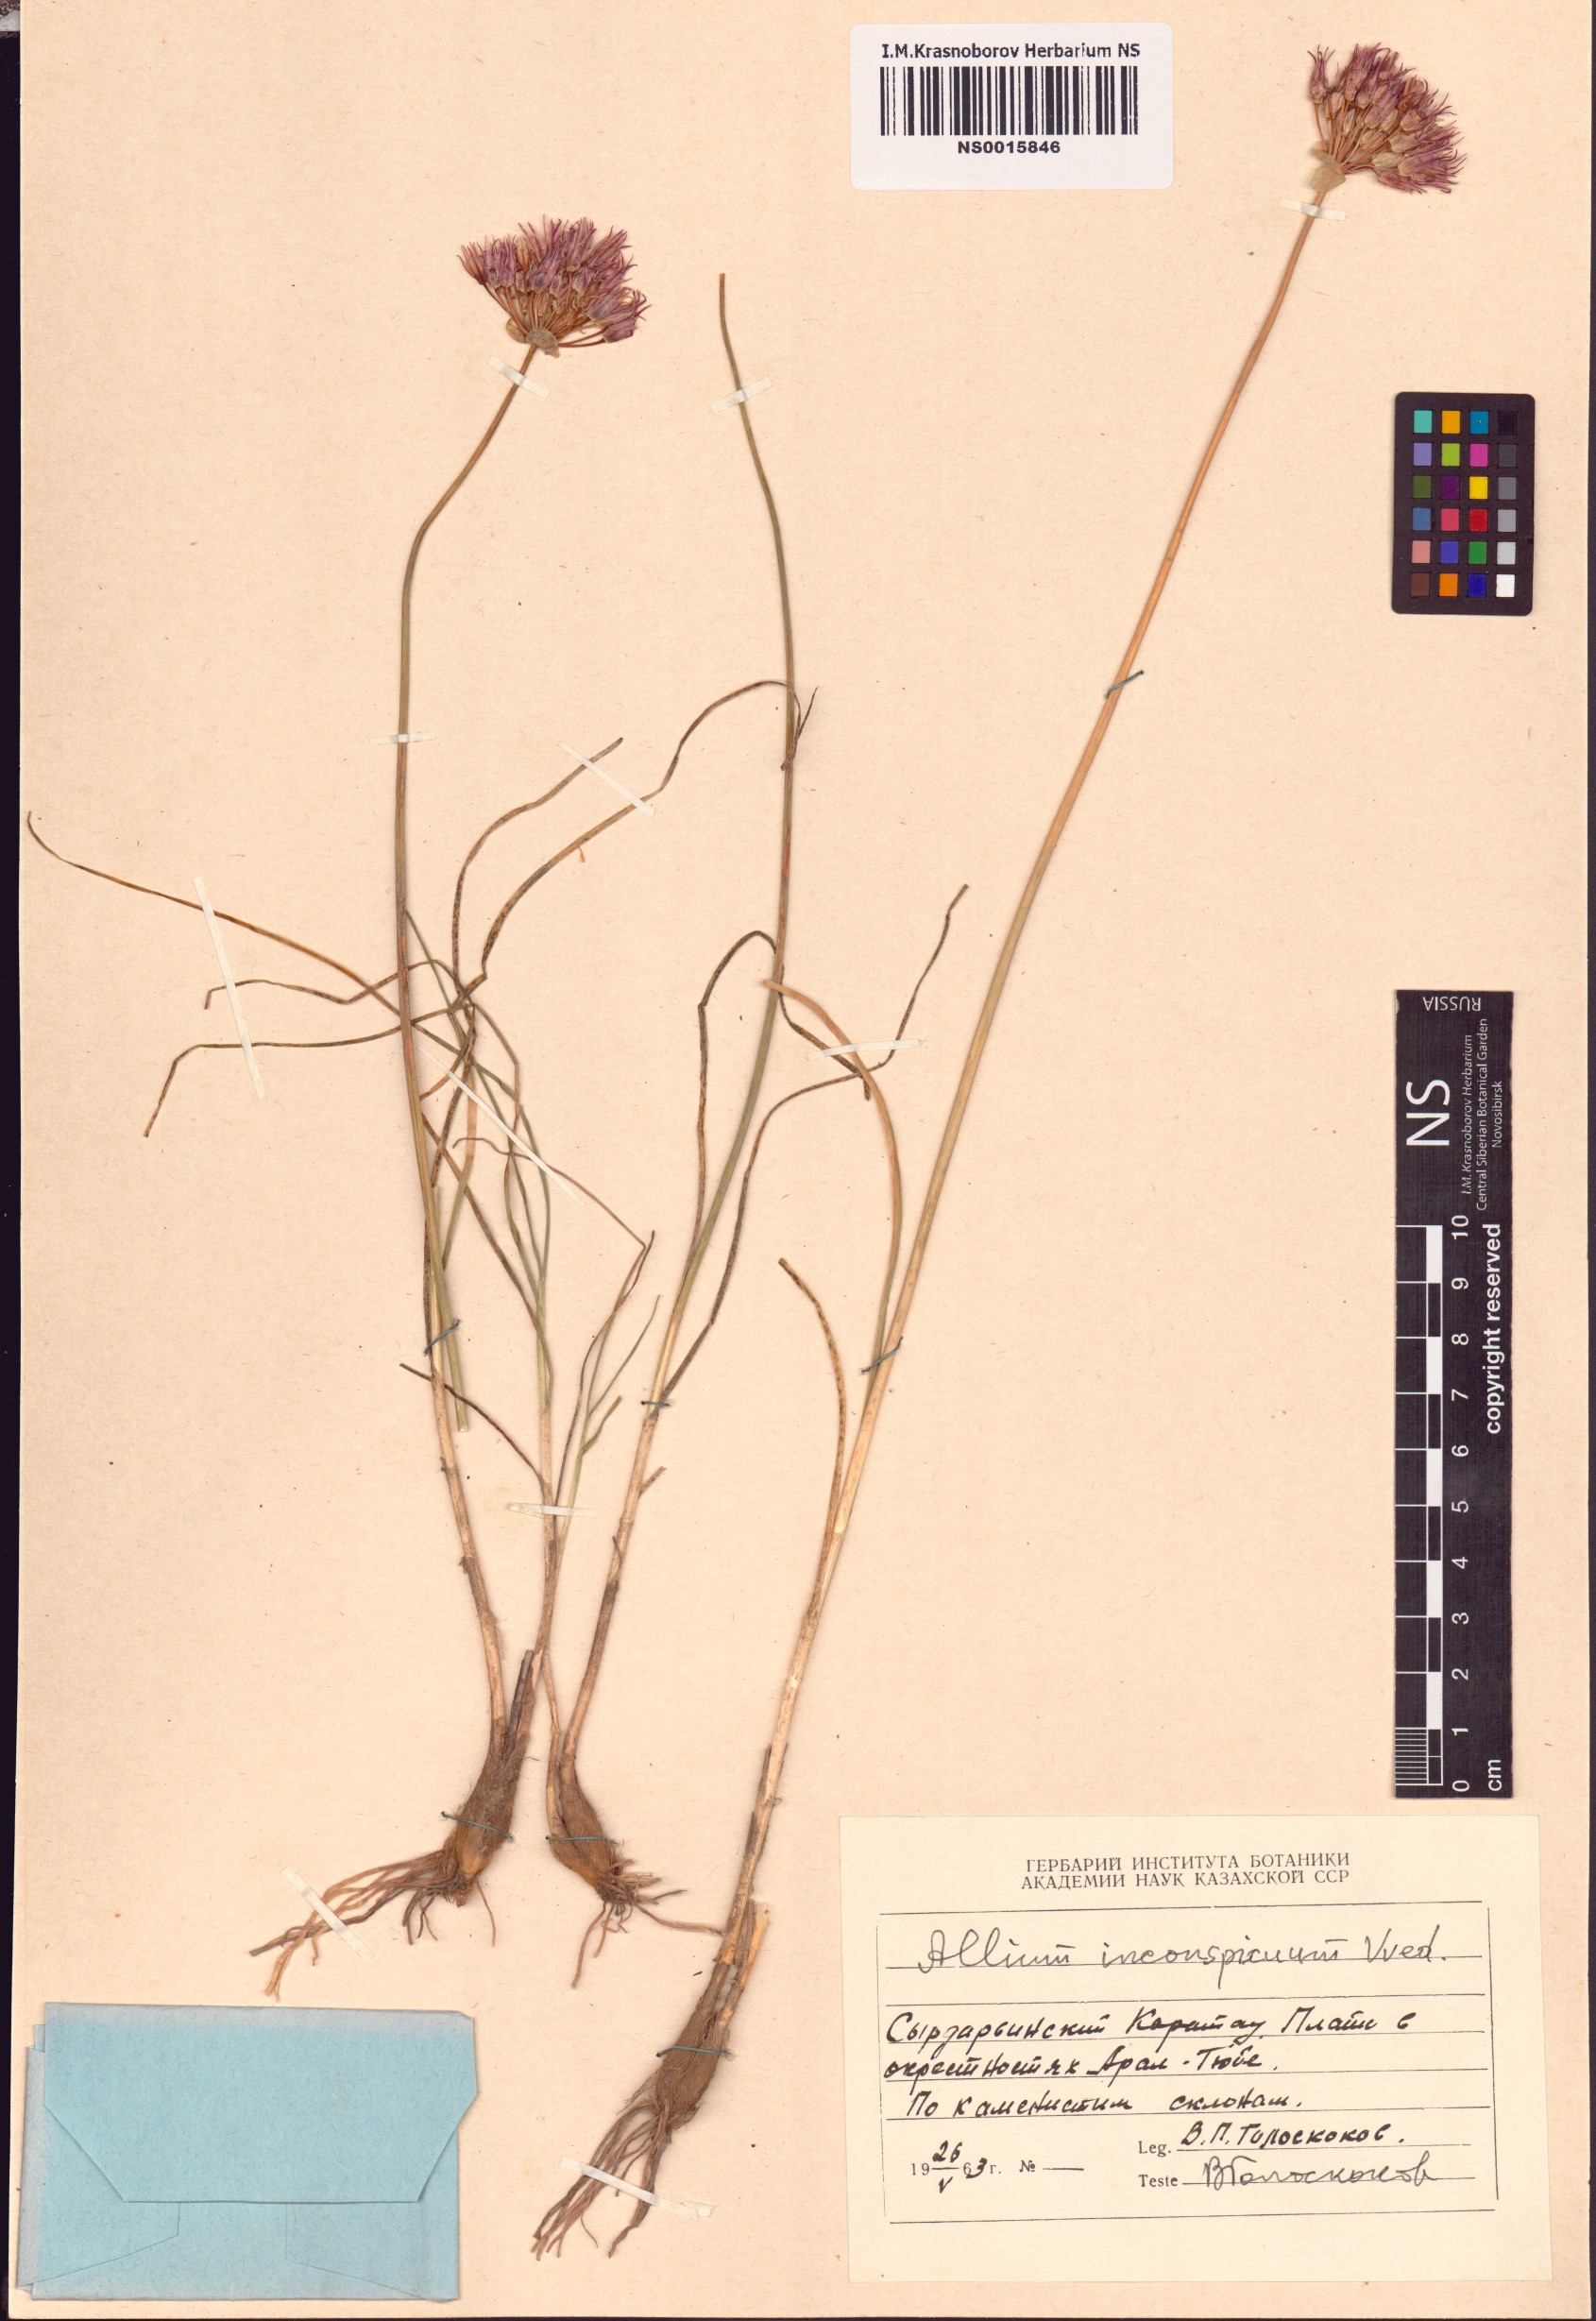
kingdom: Plantae
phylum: Tracheophyta
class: Liliopsida
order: Asparagales
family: Amaryllidaceae
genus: Allium
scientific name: Allium inconspicuum
